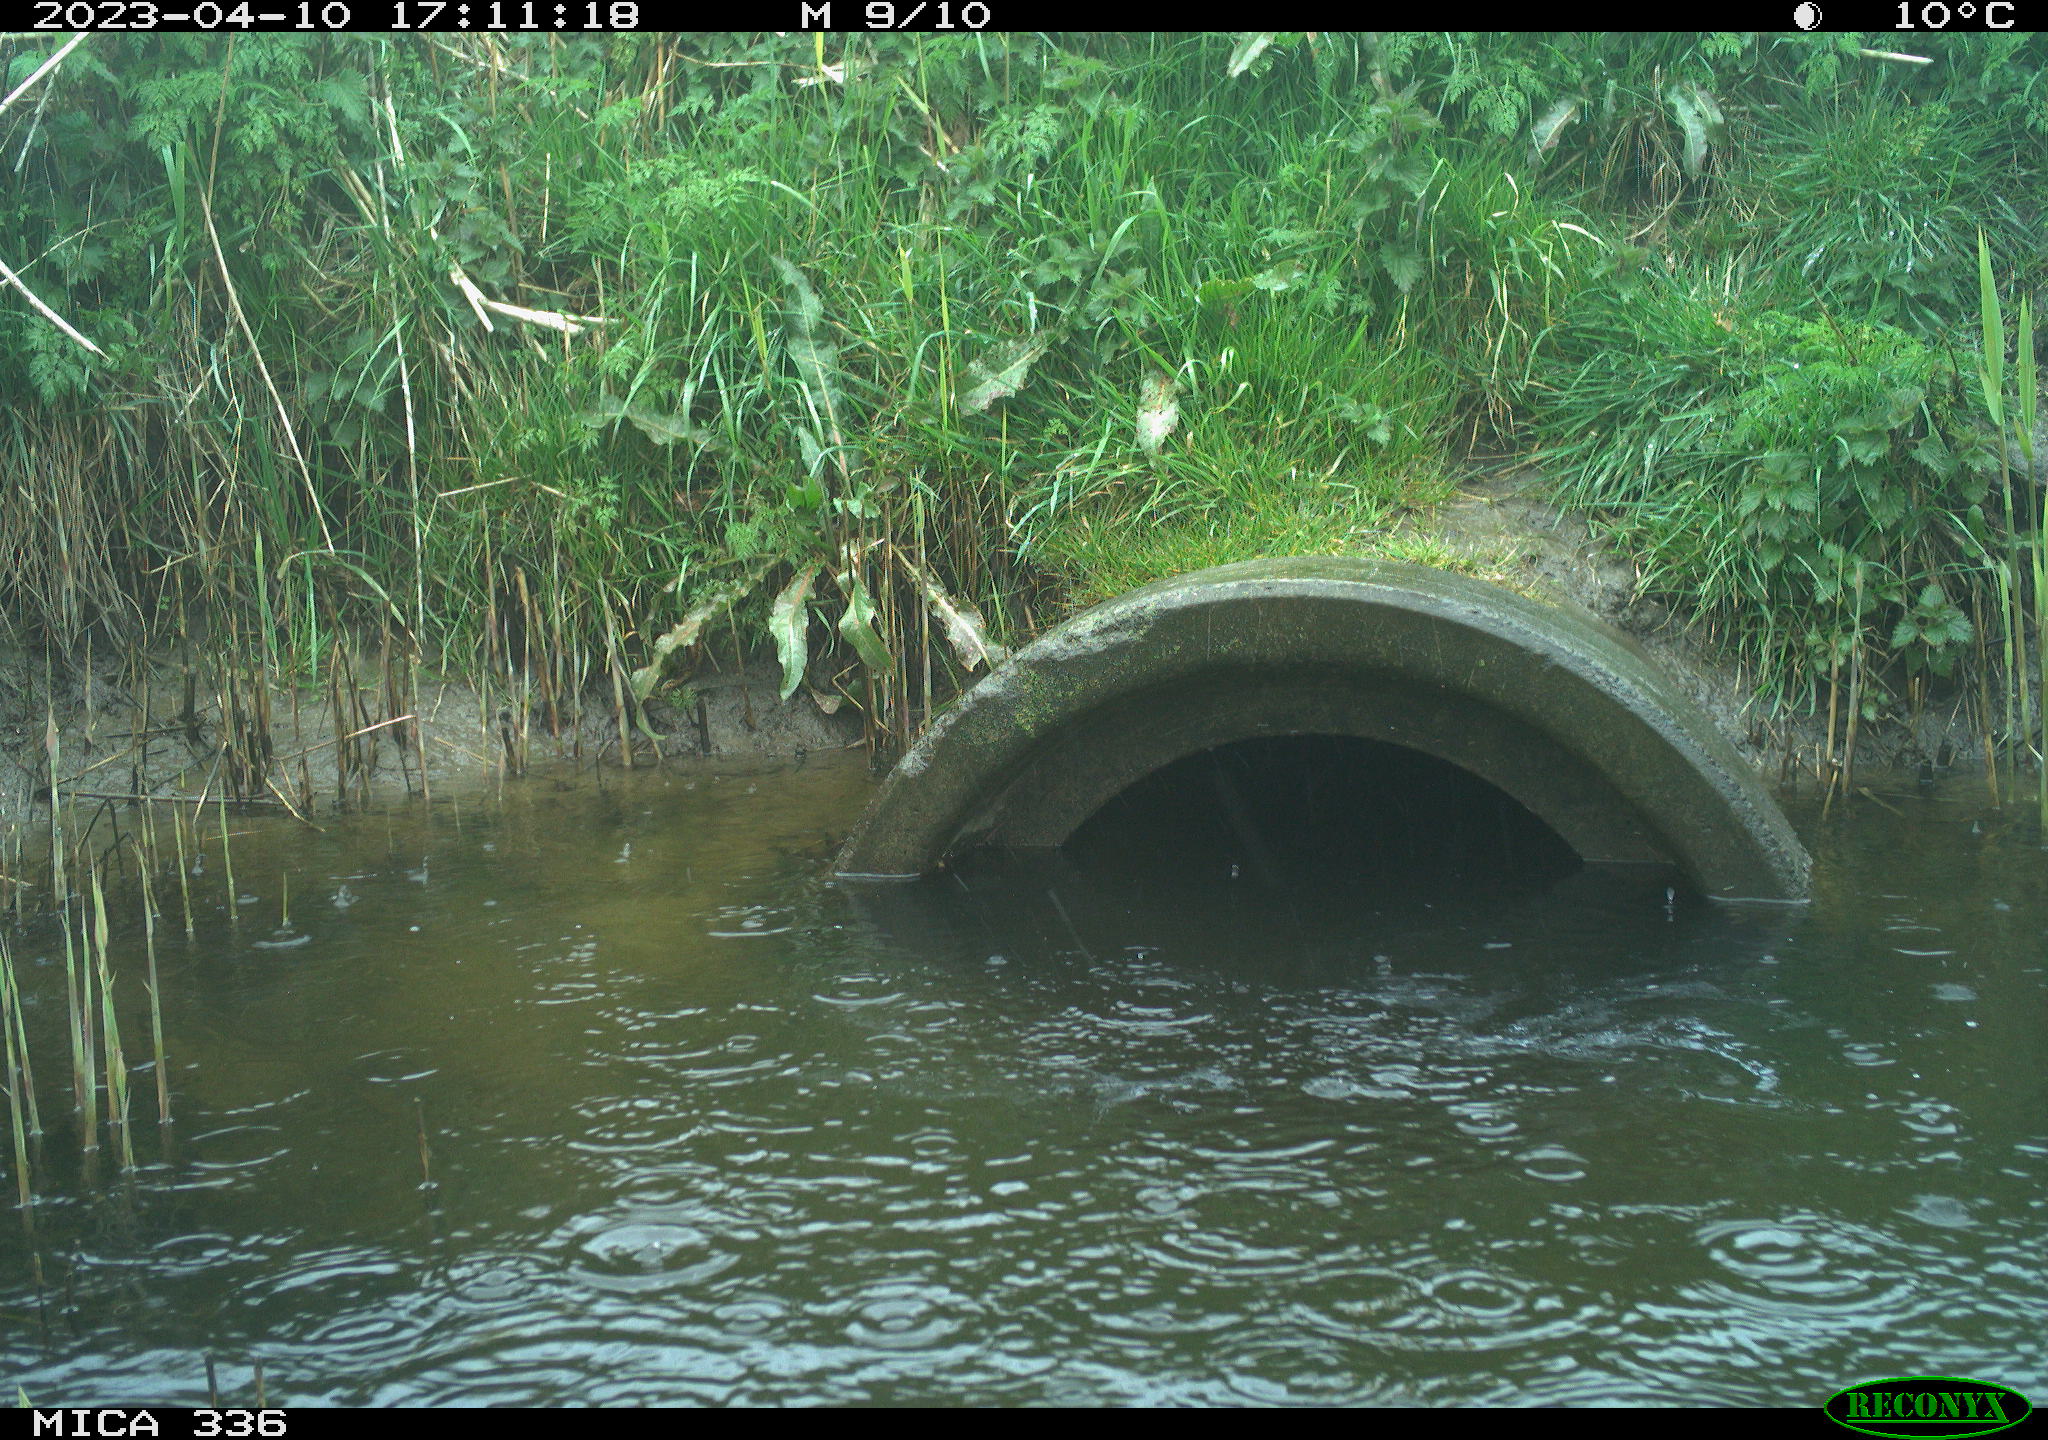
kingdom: Animalia
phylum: Chordata
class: Aves
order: Anseriformes
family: Anatidae
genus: Anas
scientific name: Anas
